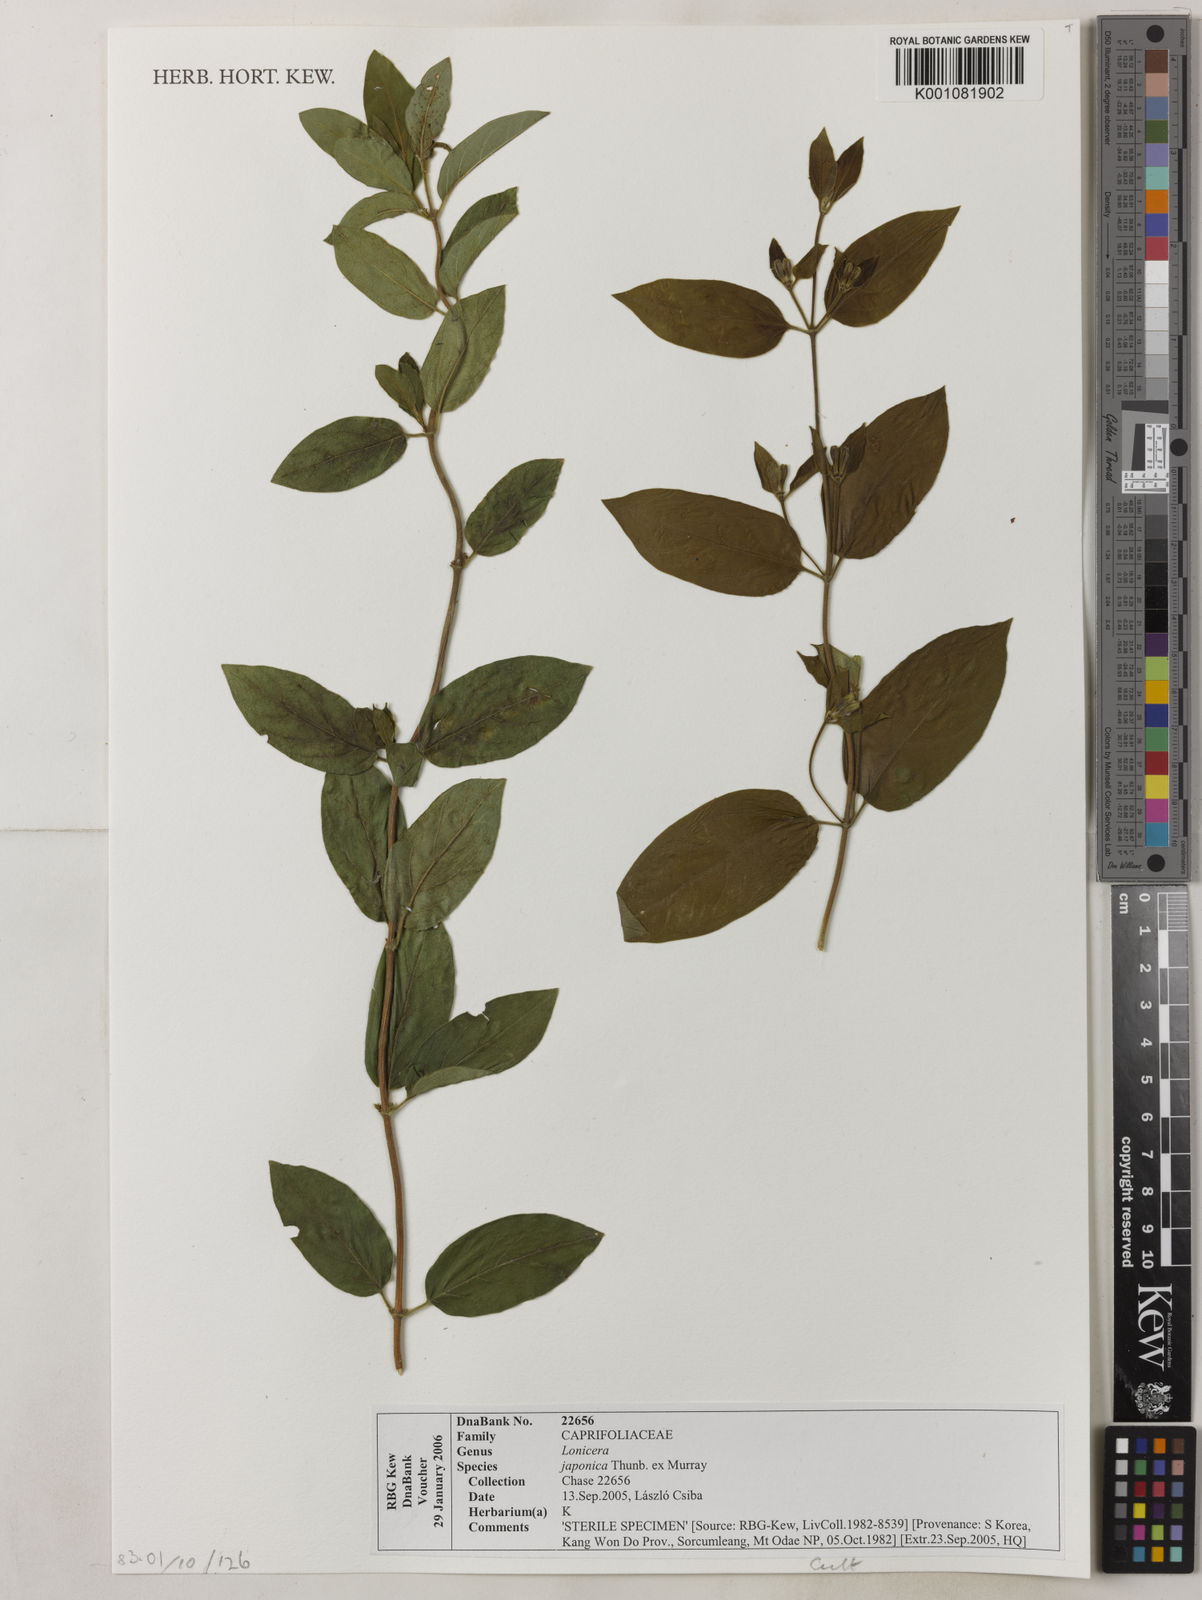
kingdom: Plantae
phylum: Tracheophyta
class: Magnoliopsida
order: Dipsacales
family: Caprifoliaceae
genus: Lonicera
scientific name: Lonicera
